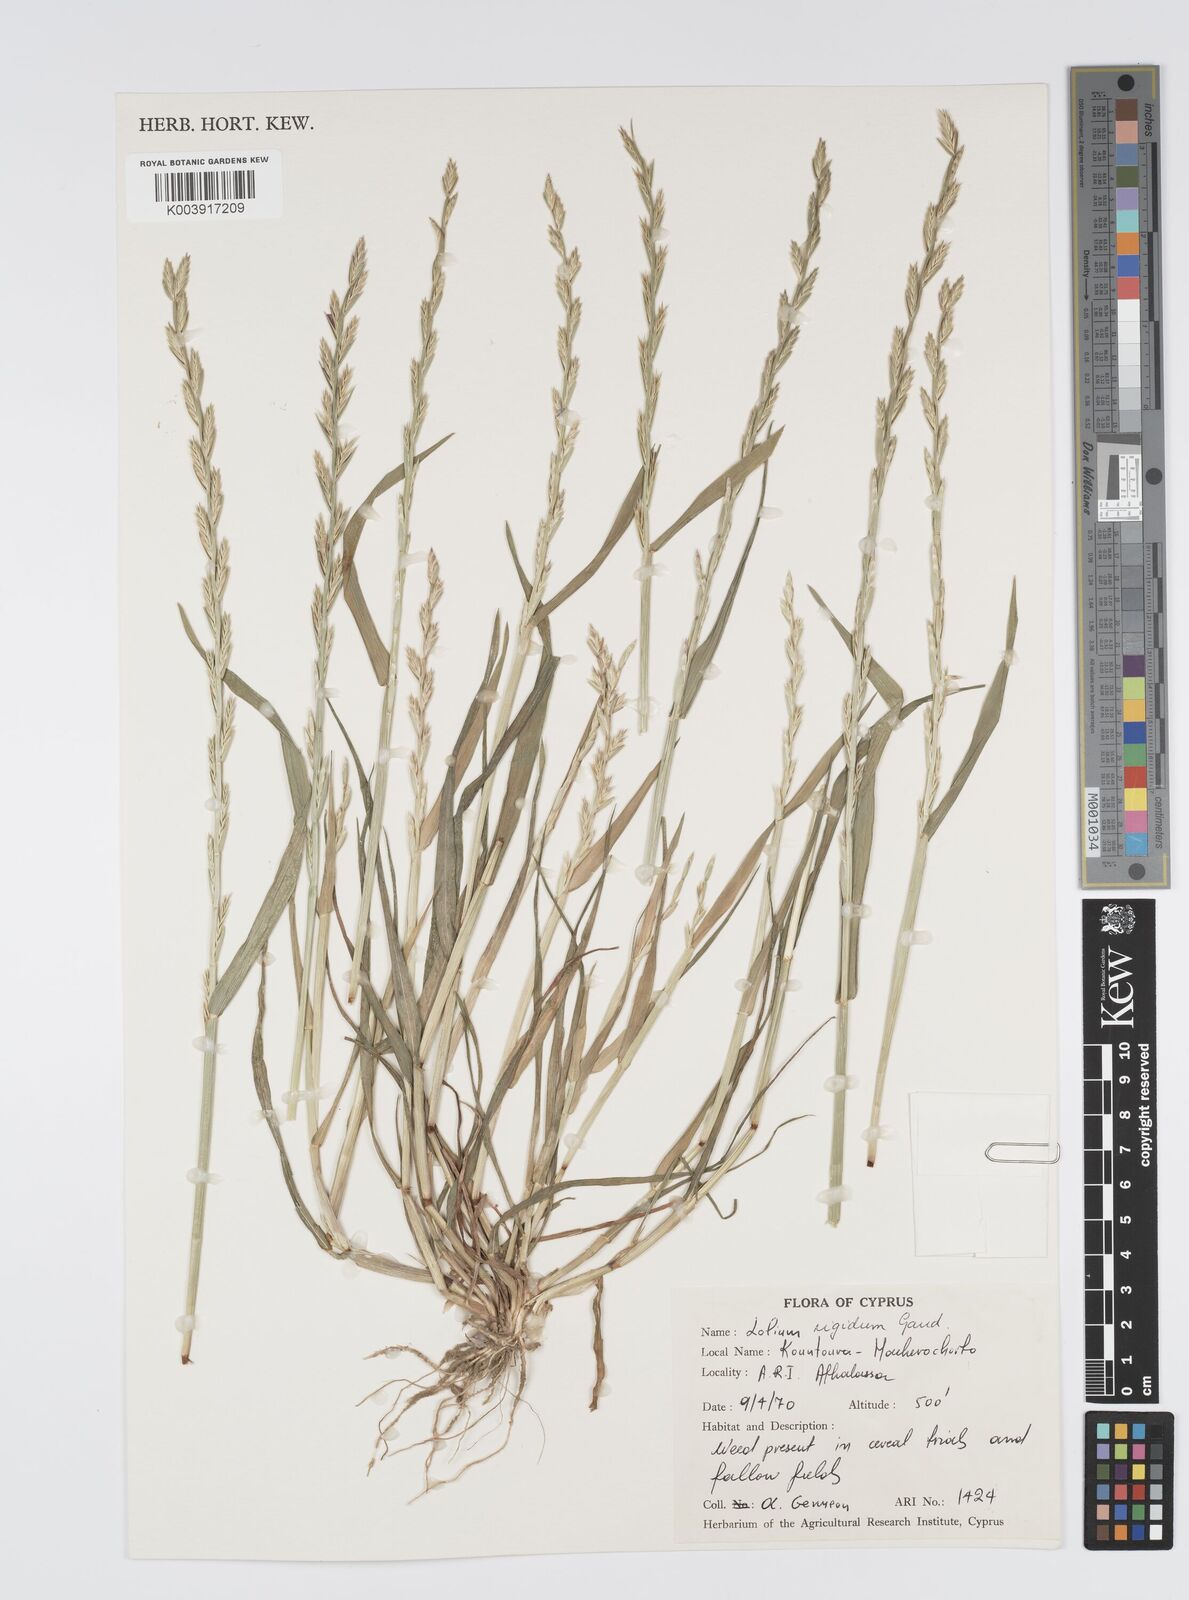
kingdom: Plantae
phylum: Tracheophyta
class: Liliopsida
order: Poales
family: Poaceae
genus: Lolium
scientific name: Lolium rigidum
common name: Wimmera ryegrass
